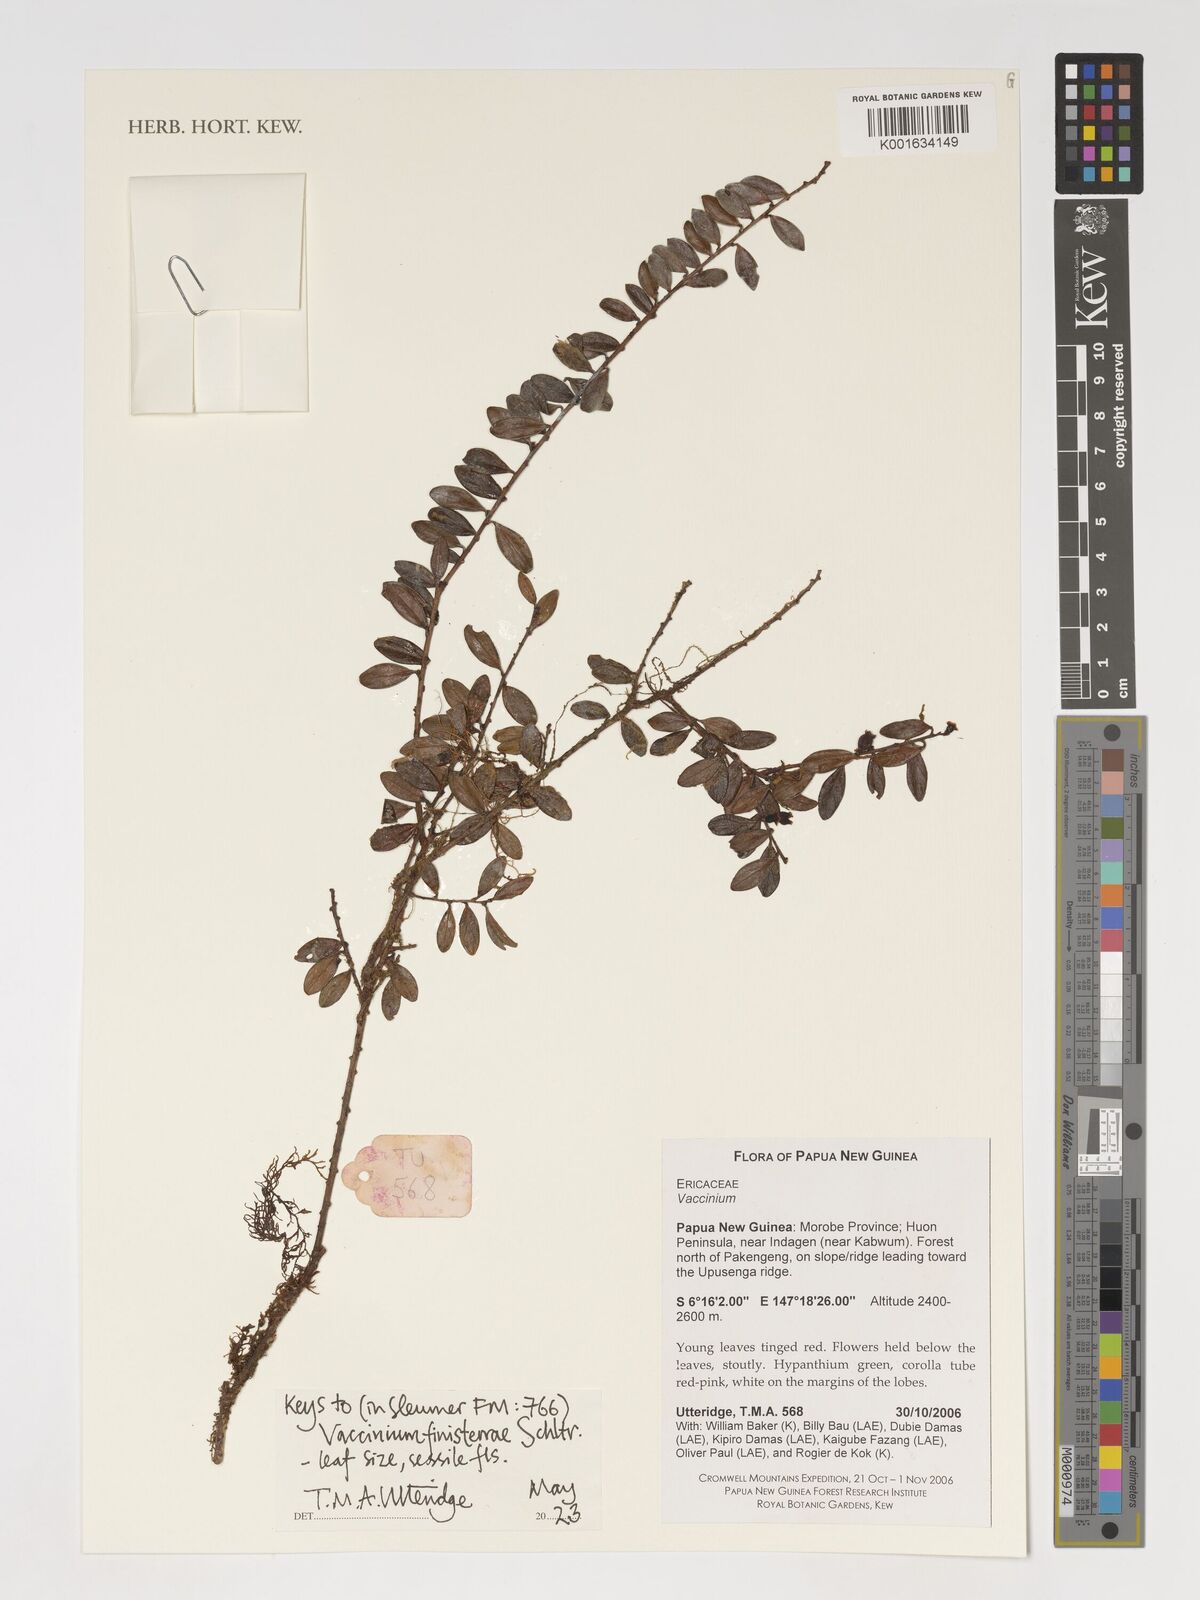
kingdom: Plantae
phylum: Tracheophyta
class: Magnoliopsida
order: Ericales
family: Ericaceae
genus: Vaccinium
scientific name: Vaccinium finisterrae
